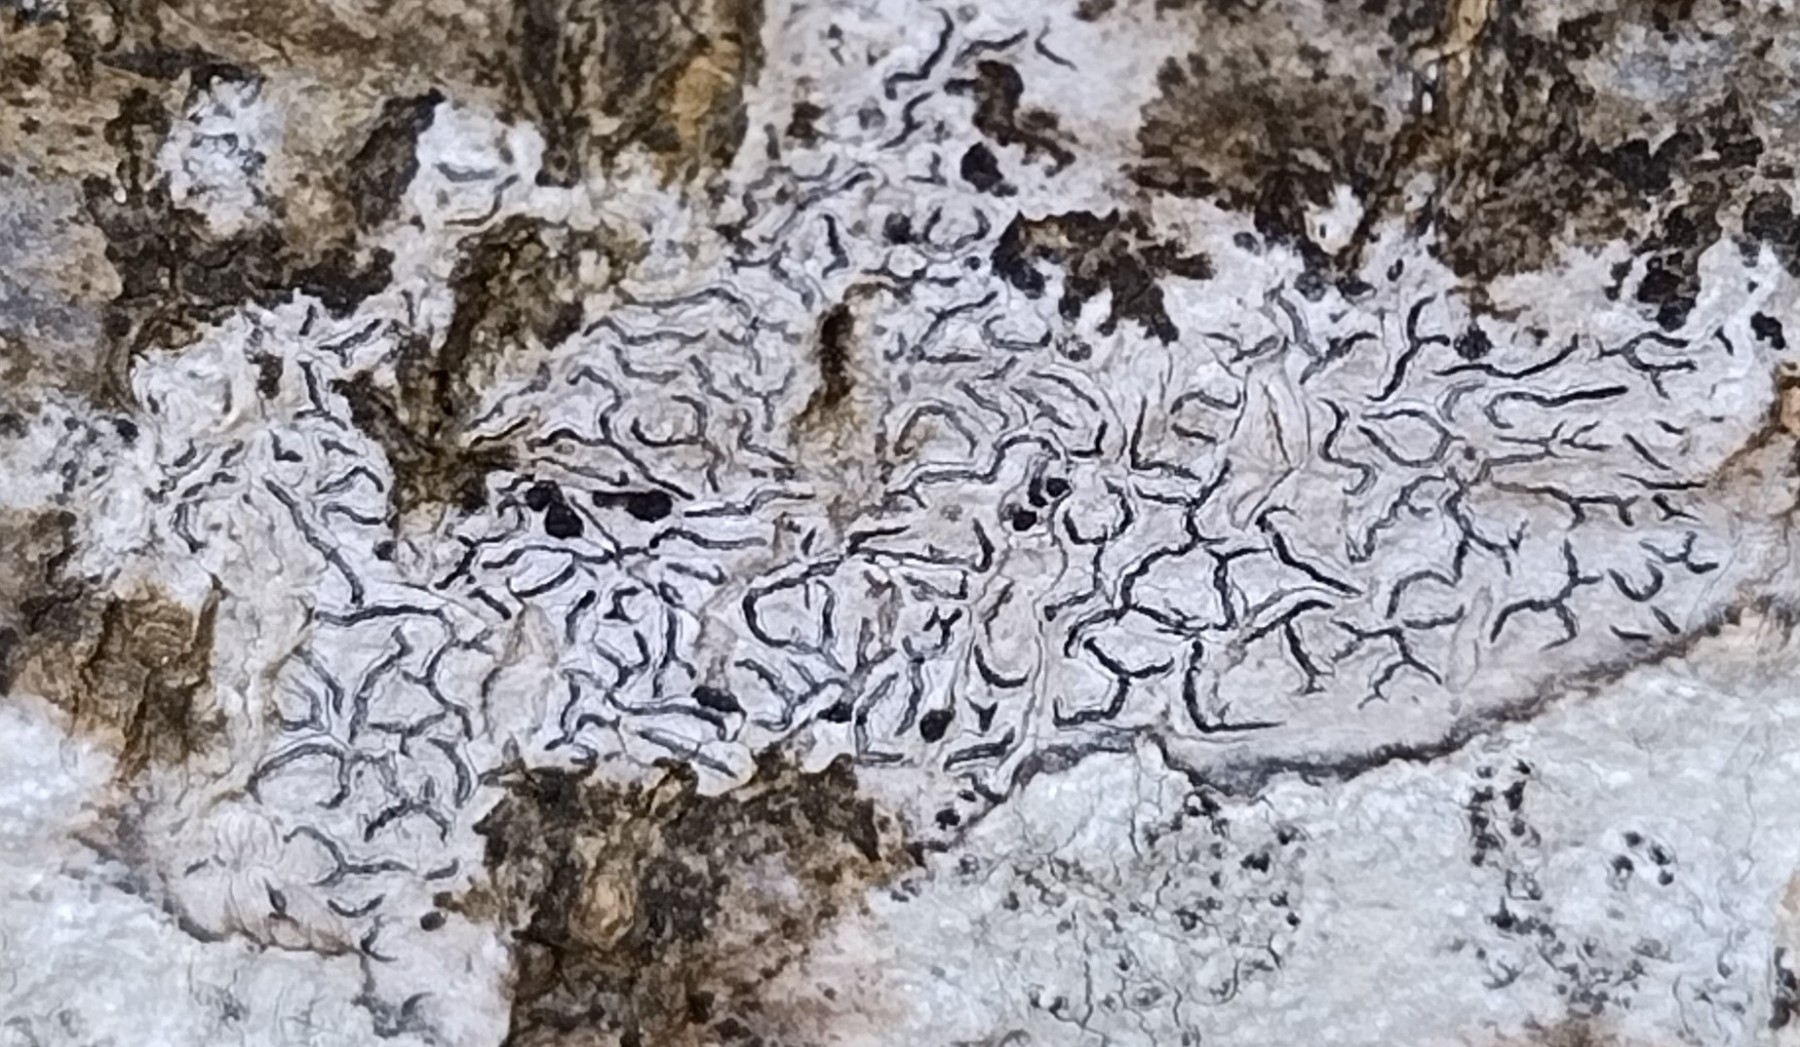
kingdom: Fungi
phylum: Ascomycota
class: Lecanoromycetes
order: Ostropales
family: Graphidaceae
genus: Graphis
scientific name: Graphis scripta
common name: almindelig skriftlav
